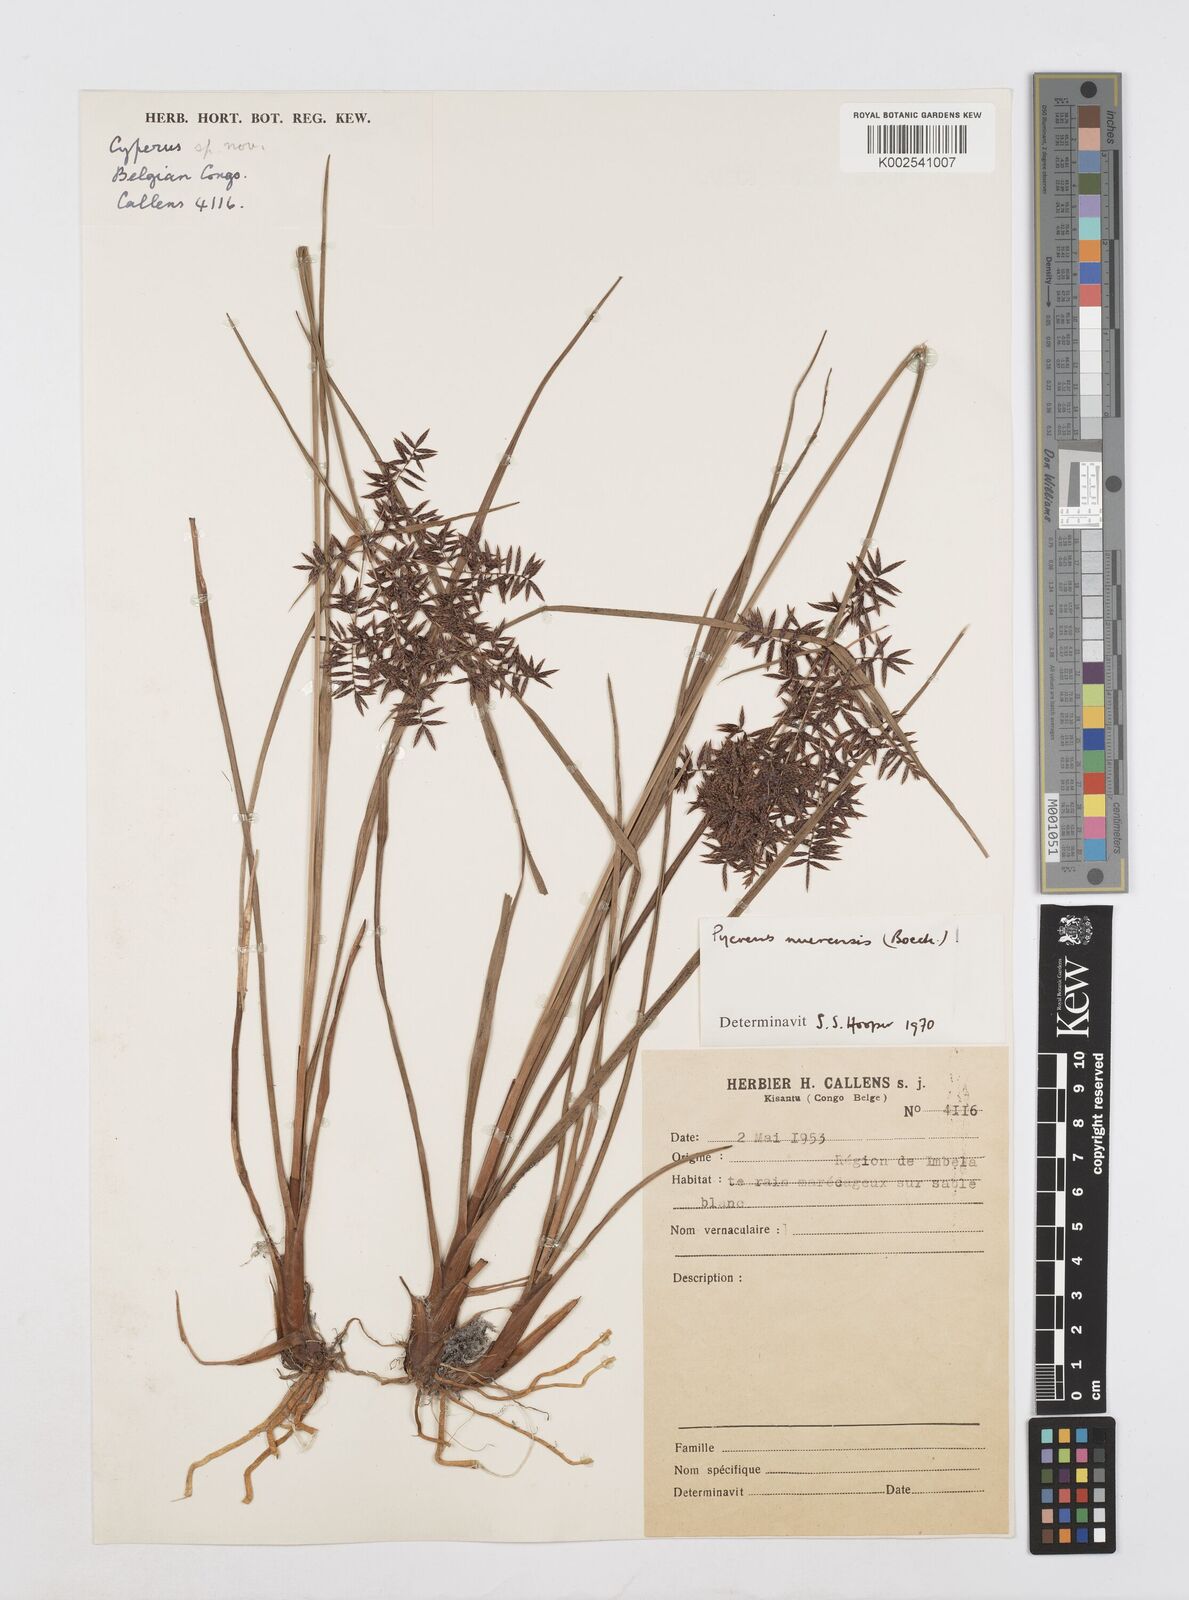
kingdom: Plantae
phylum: Tracheophyta
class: Liliopsida
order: Poales
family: Cyperaceae
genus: Cyperus
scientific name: Cyperus nuerensis
